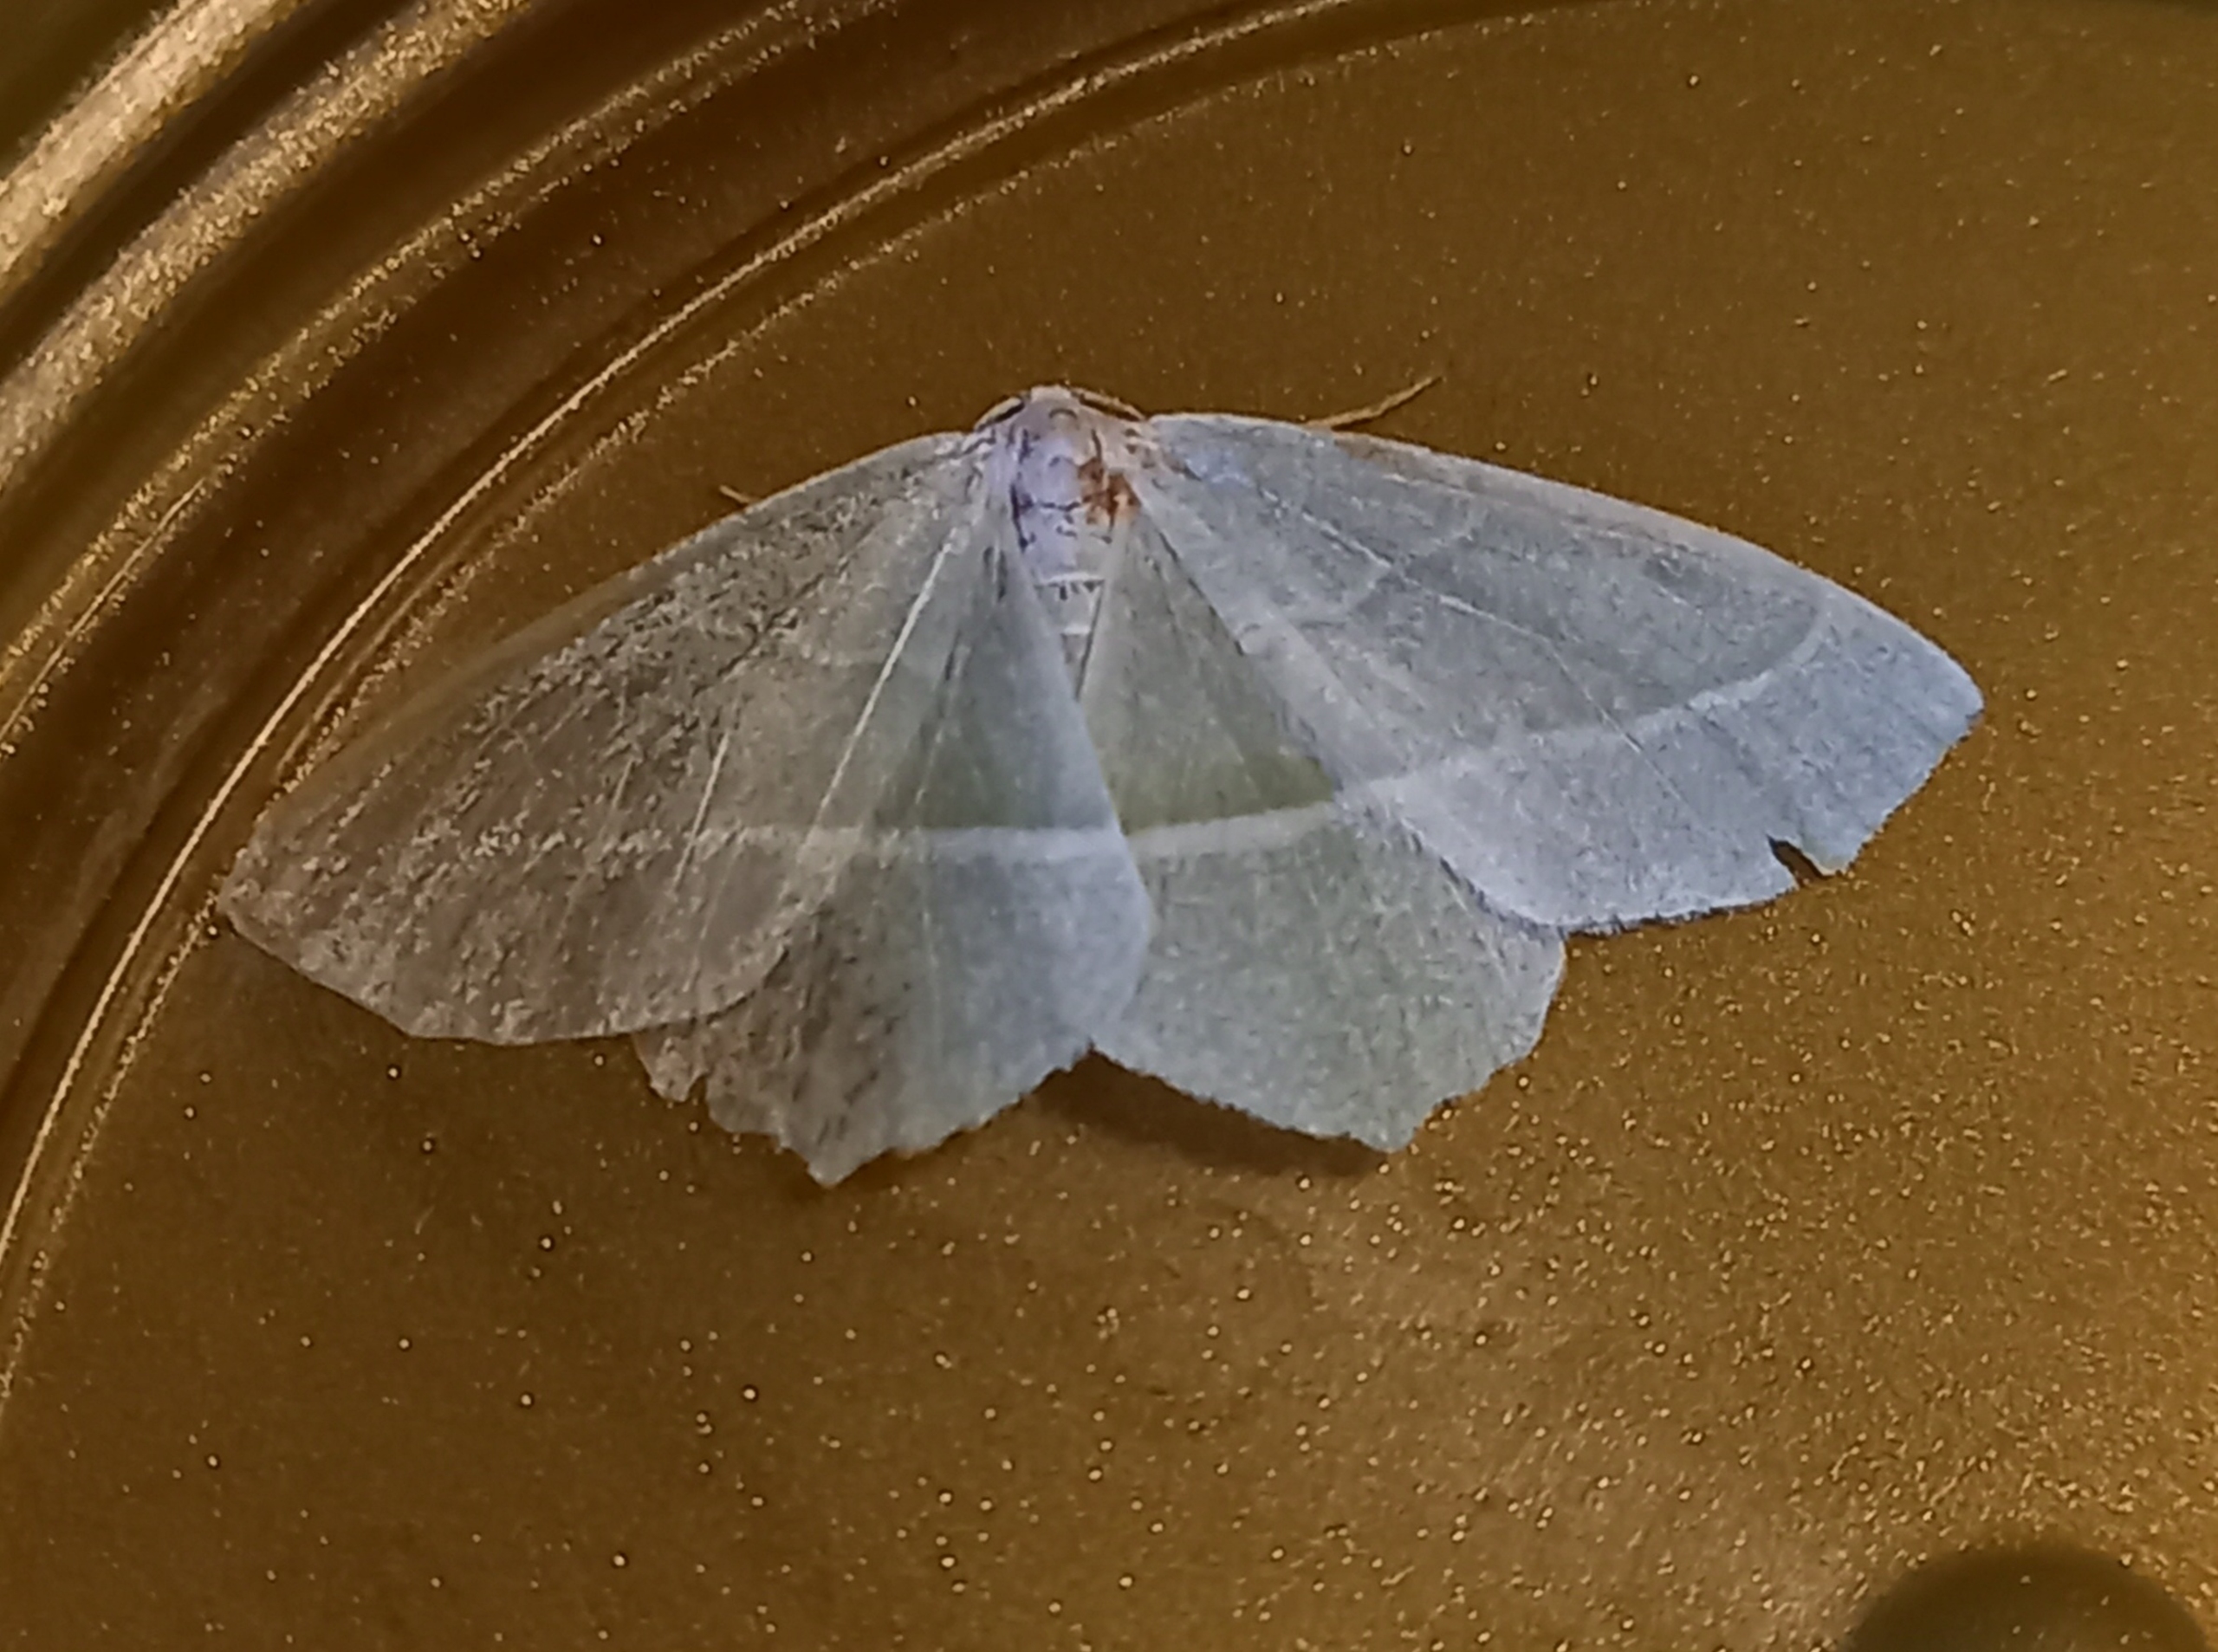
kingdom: Animalia
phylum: Arthropoda
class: Insecta
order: Lepidoptera
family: Geometridae
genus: Campaea
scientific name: Campaea margaritaria
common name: Perlemåler
